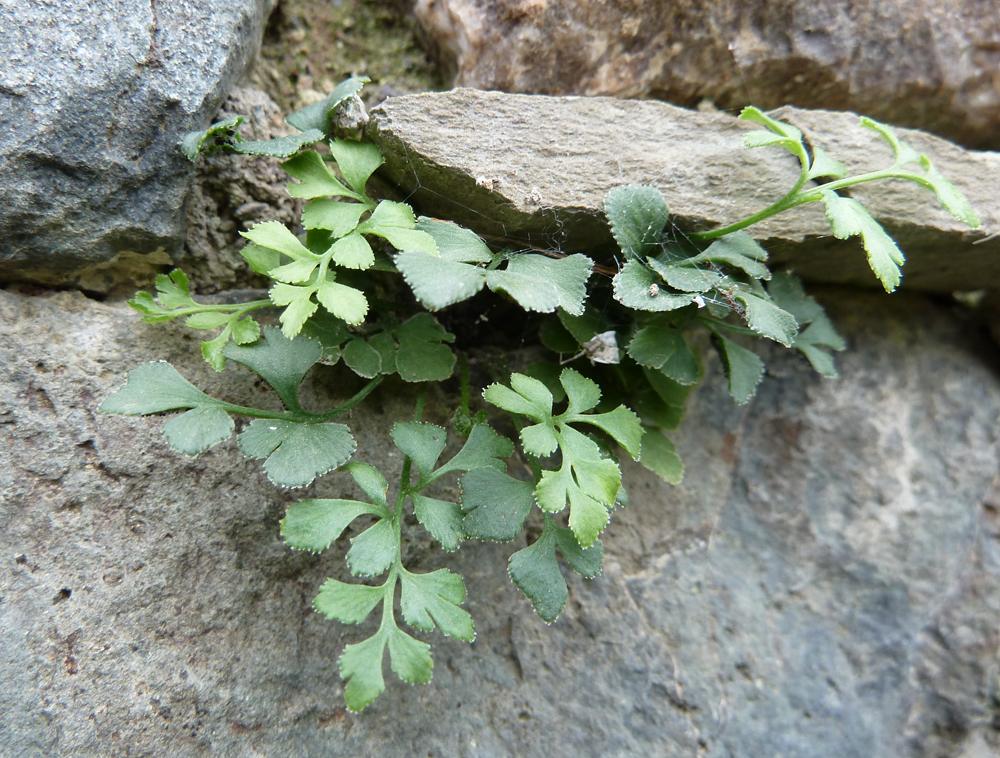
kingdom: Plantae
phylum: Tracheophyta
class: Polypodiopsida
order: Polypodiales
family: Aspleniaceae
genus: Asplenium
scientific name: Asplenium ruta-muraria
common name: Wall-rue
